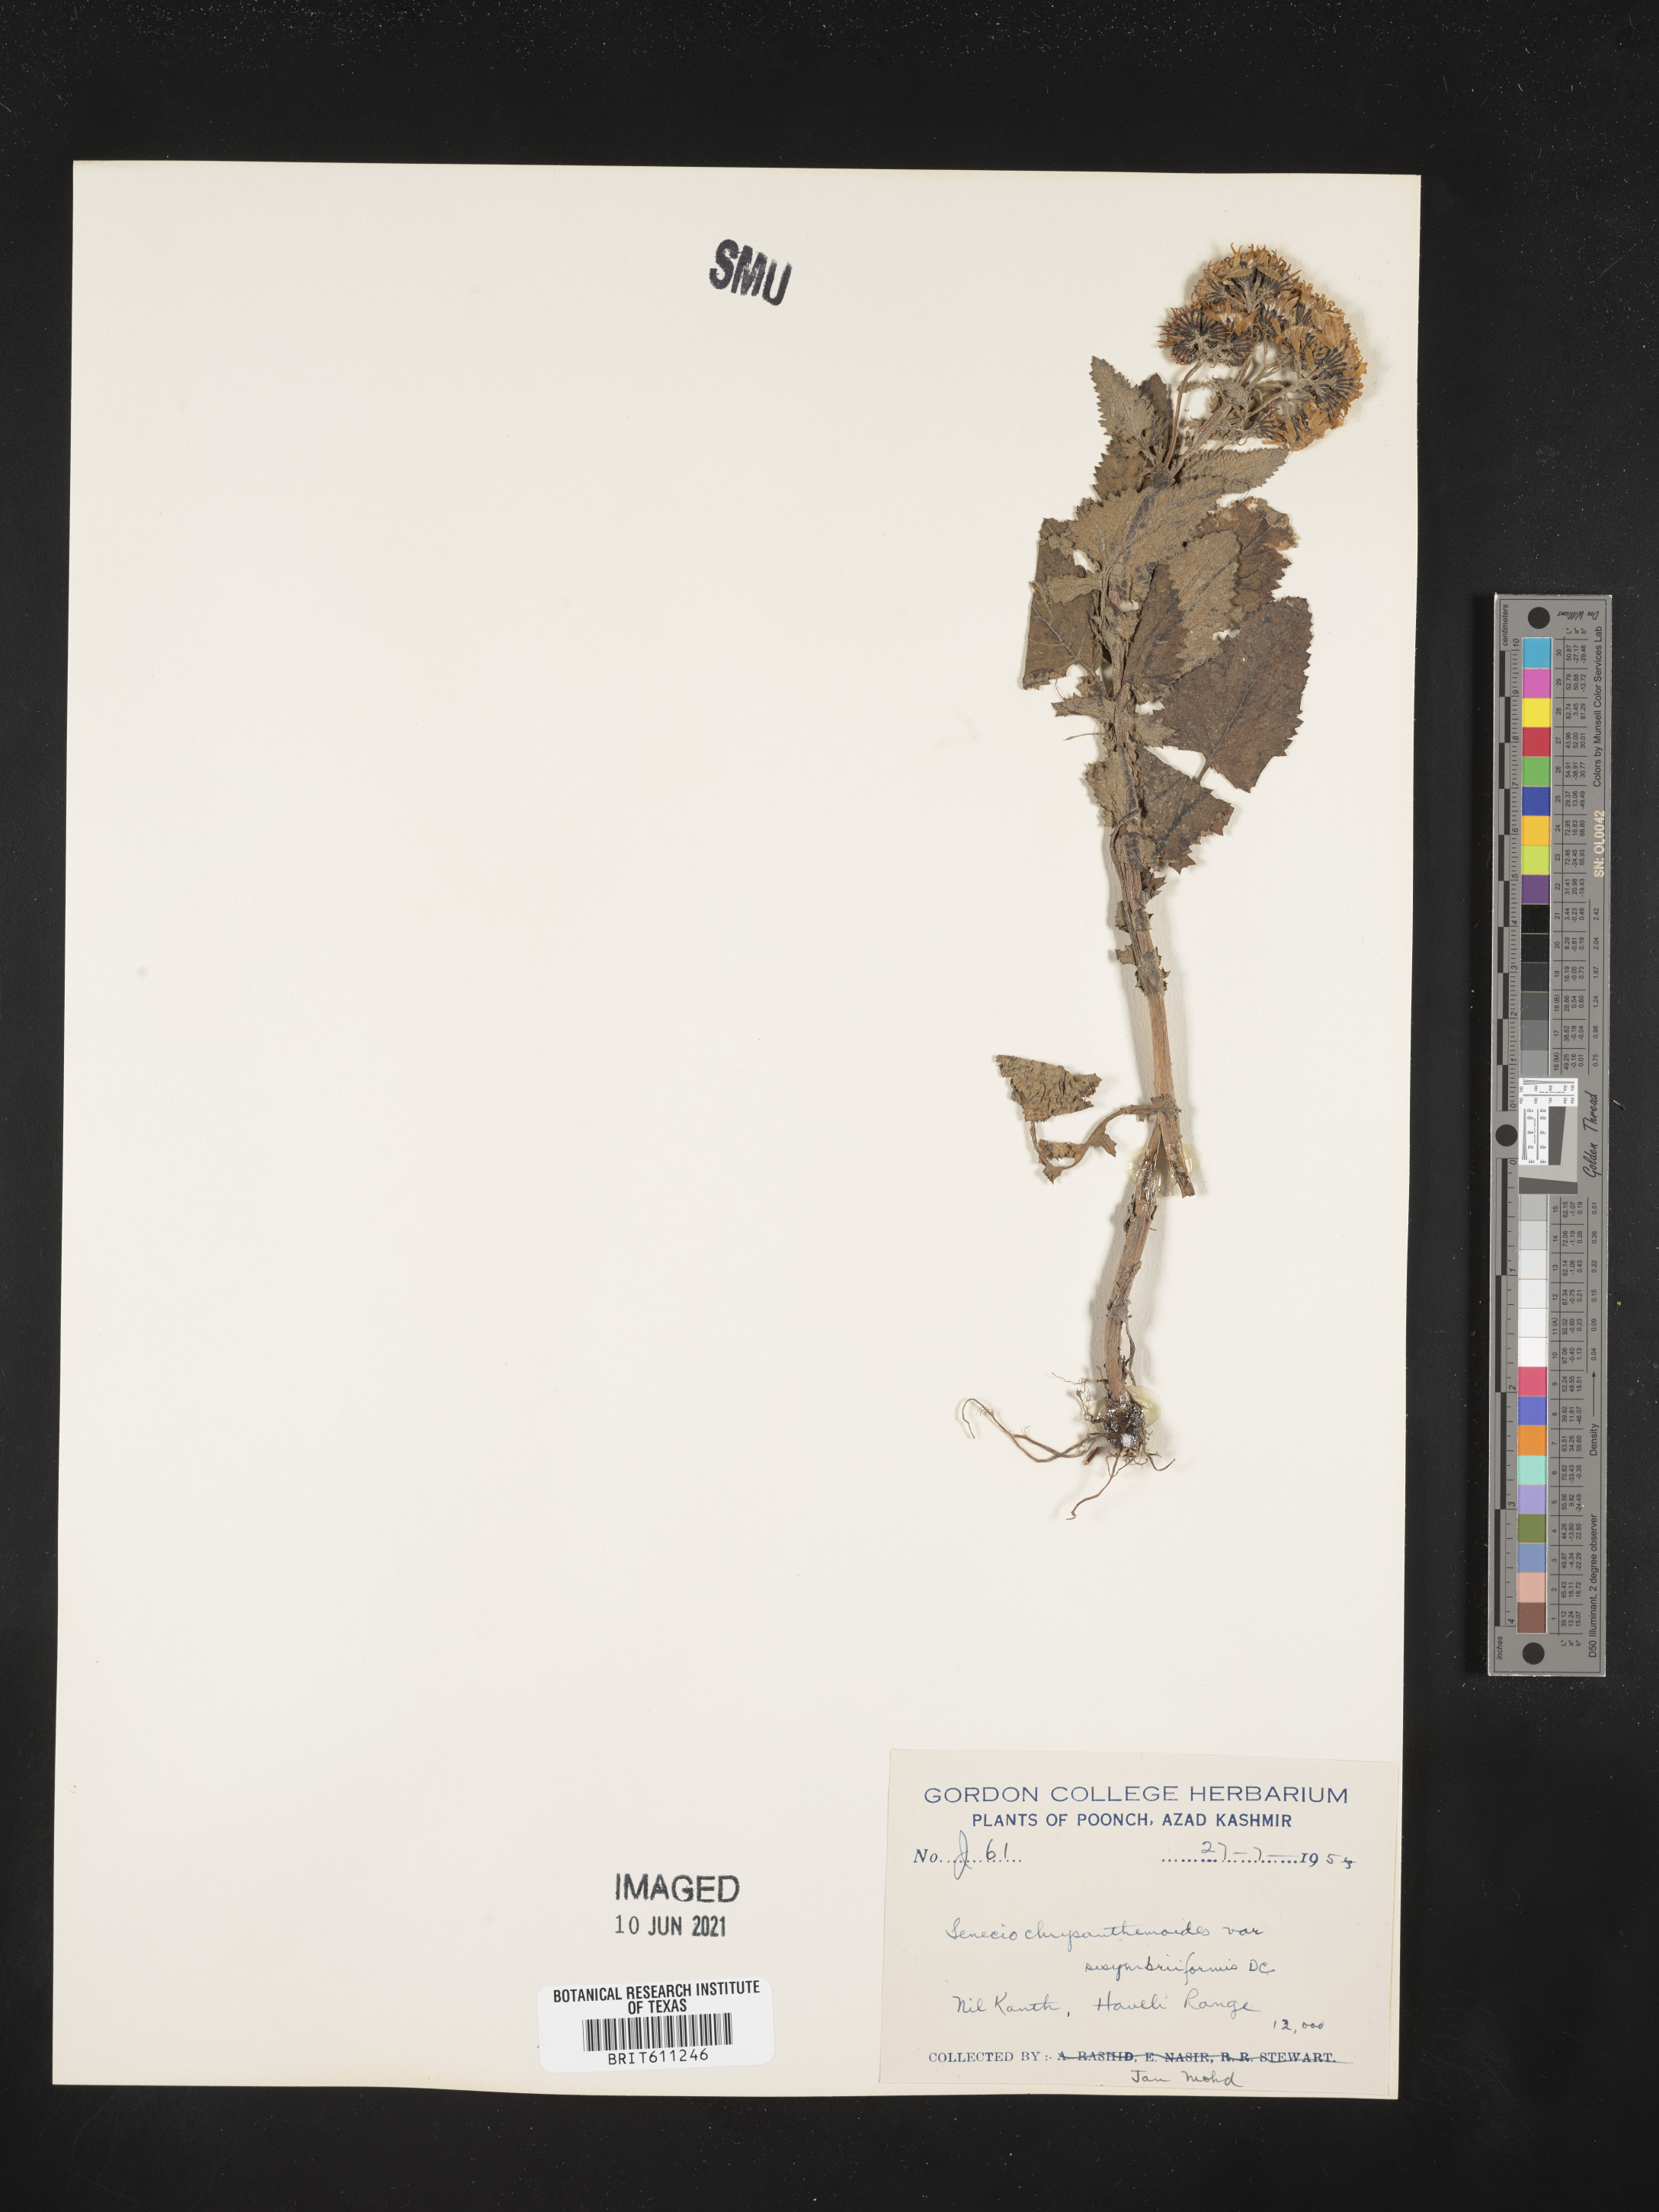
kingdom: Plantae
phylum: Tracheophyta
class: Magnoliopsida
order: Asterales
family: Asteraceae
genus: Senecio
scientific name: Senecio chrysanthemoides
